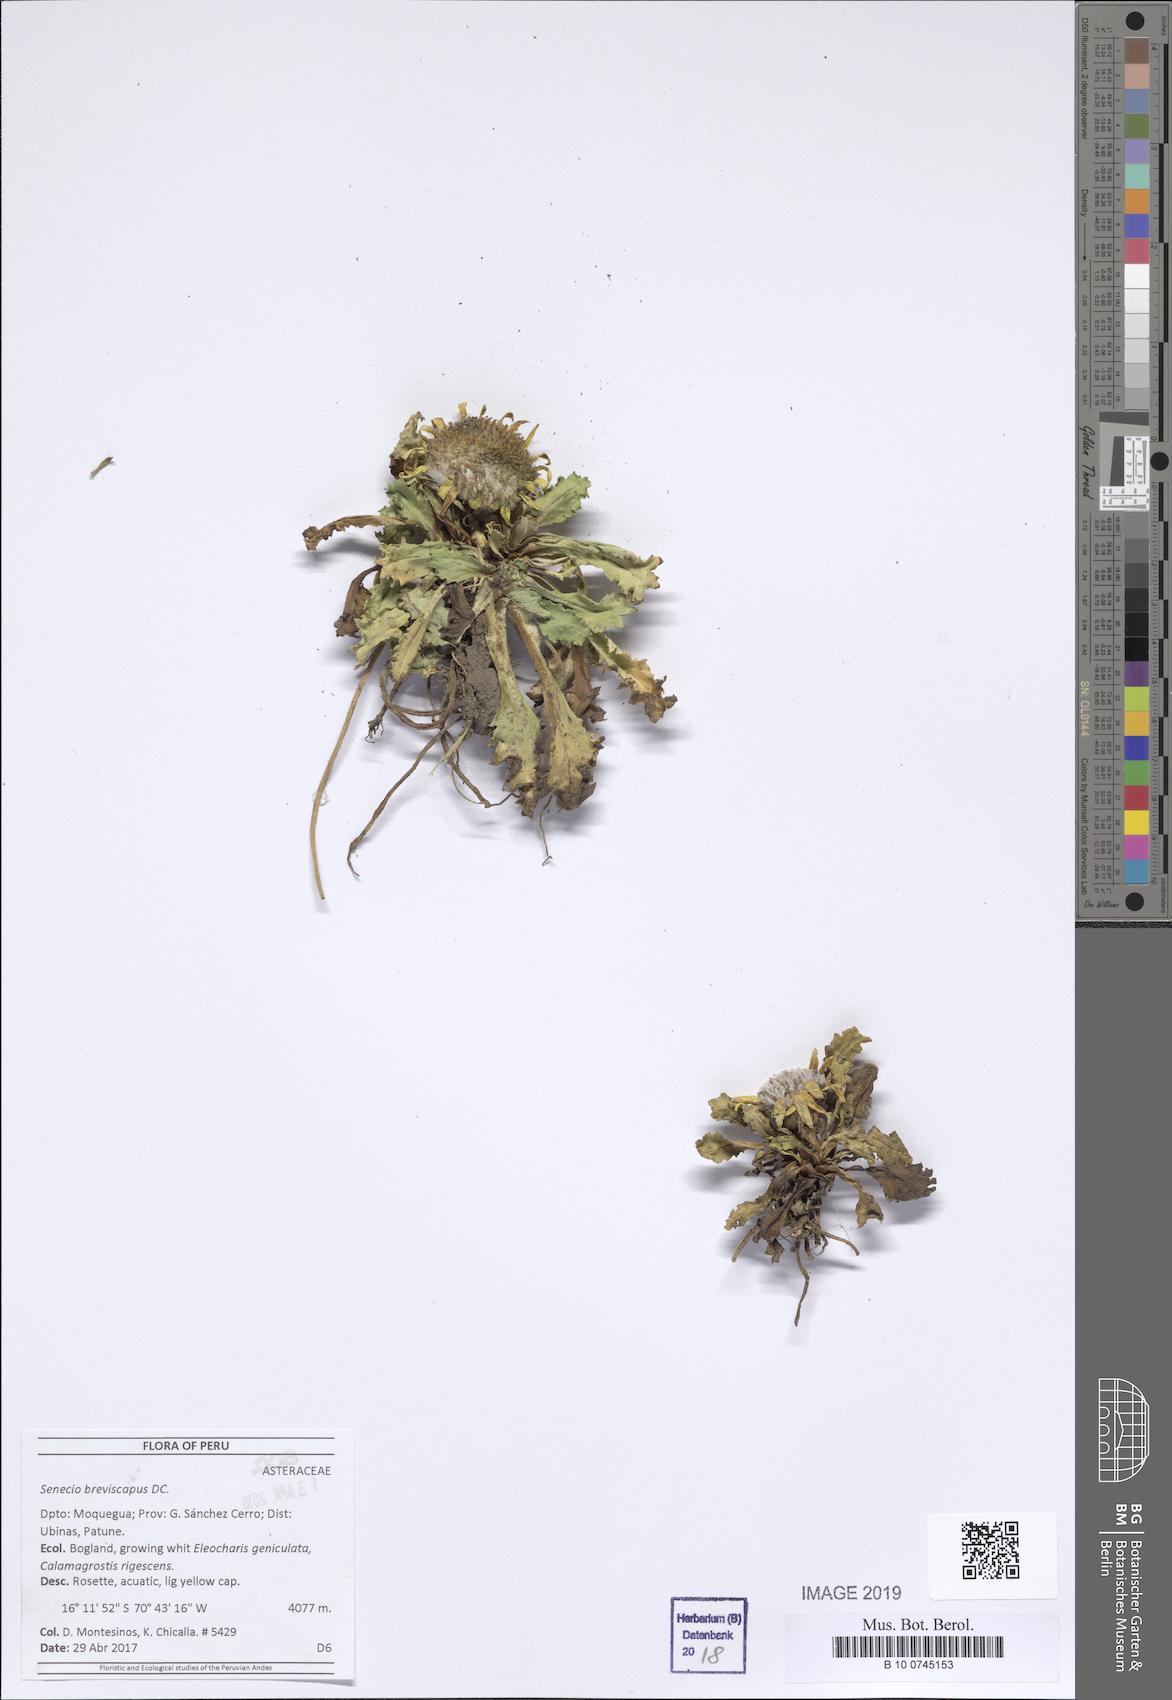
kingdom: Plantae
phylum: Tracheophyta
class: Magnoliopsida
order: Asterales
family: Asteraceae
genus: Senecio
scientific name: Senecio breviscapus
